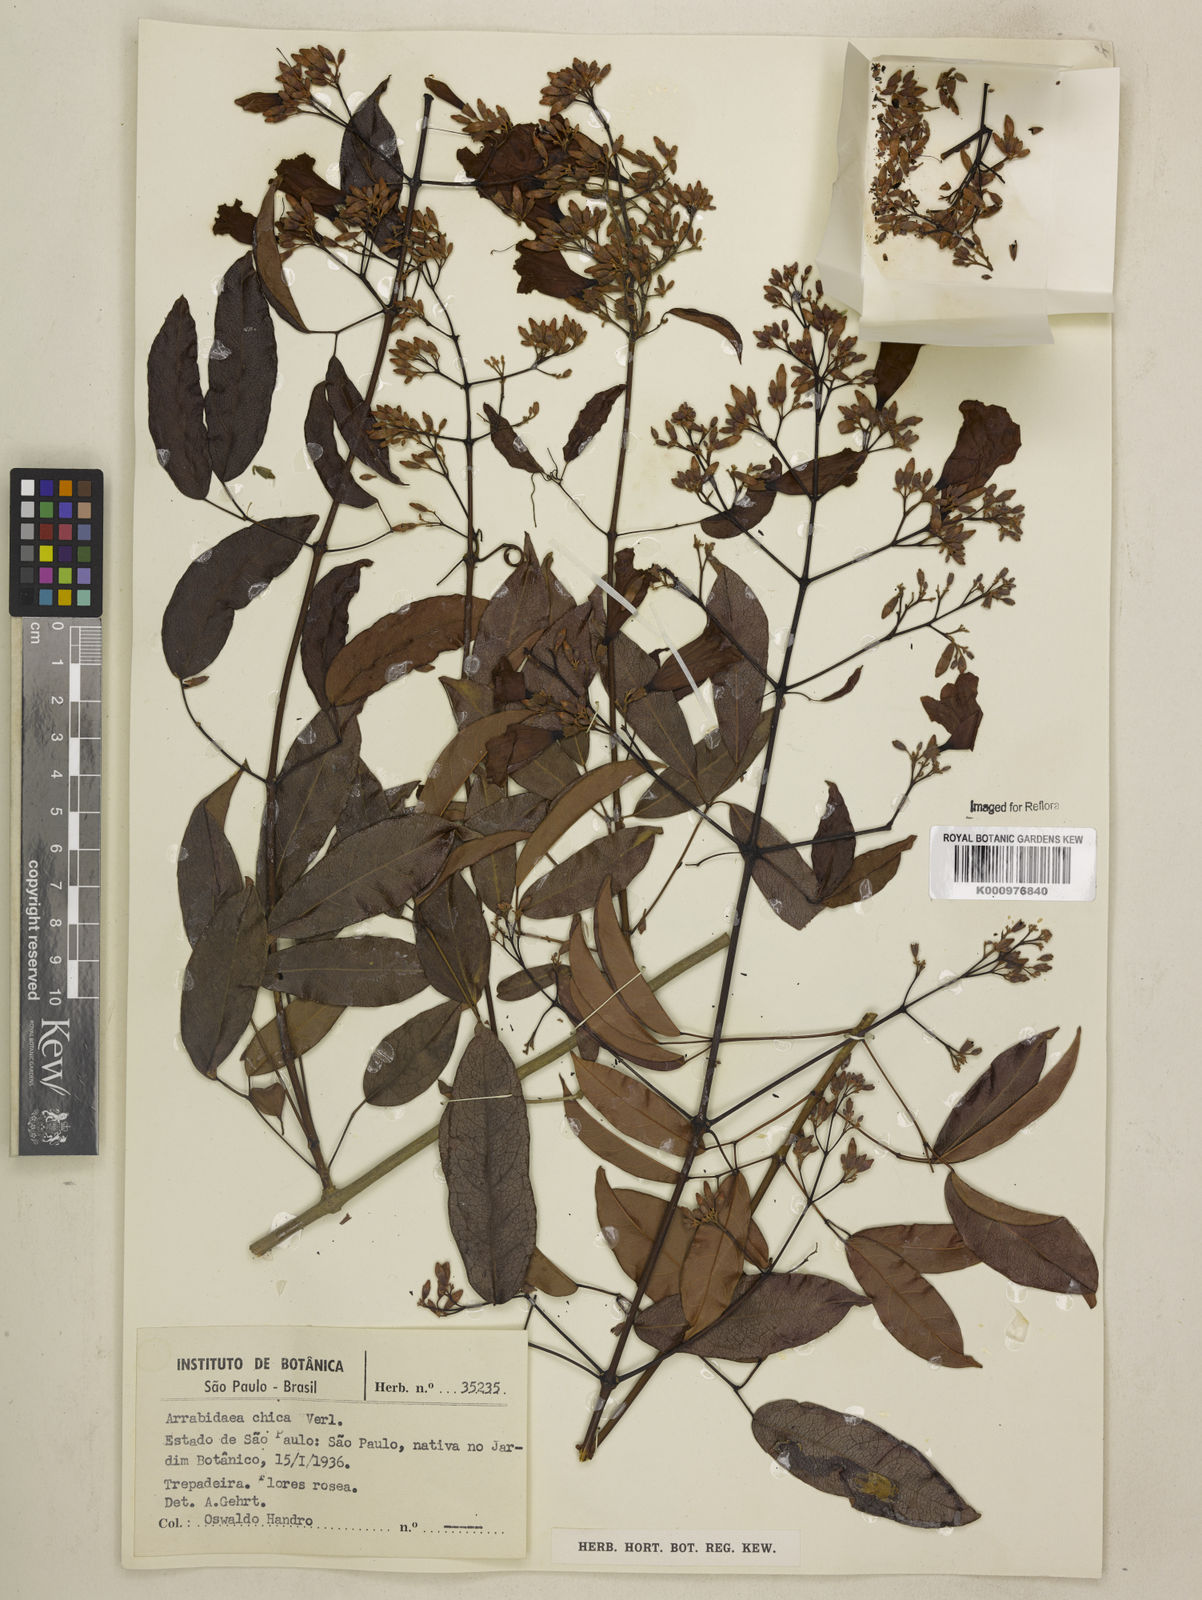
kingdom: Plantae
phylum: Tracheophyta
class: Magnoliopsida
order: Lamiales
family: Bignoniaceae
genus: Fridericia
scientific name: Fridericia chica
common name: Cricketvine
